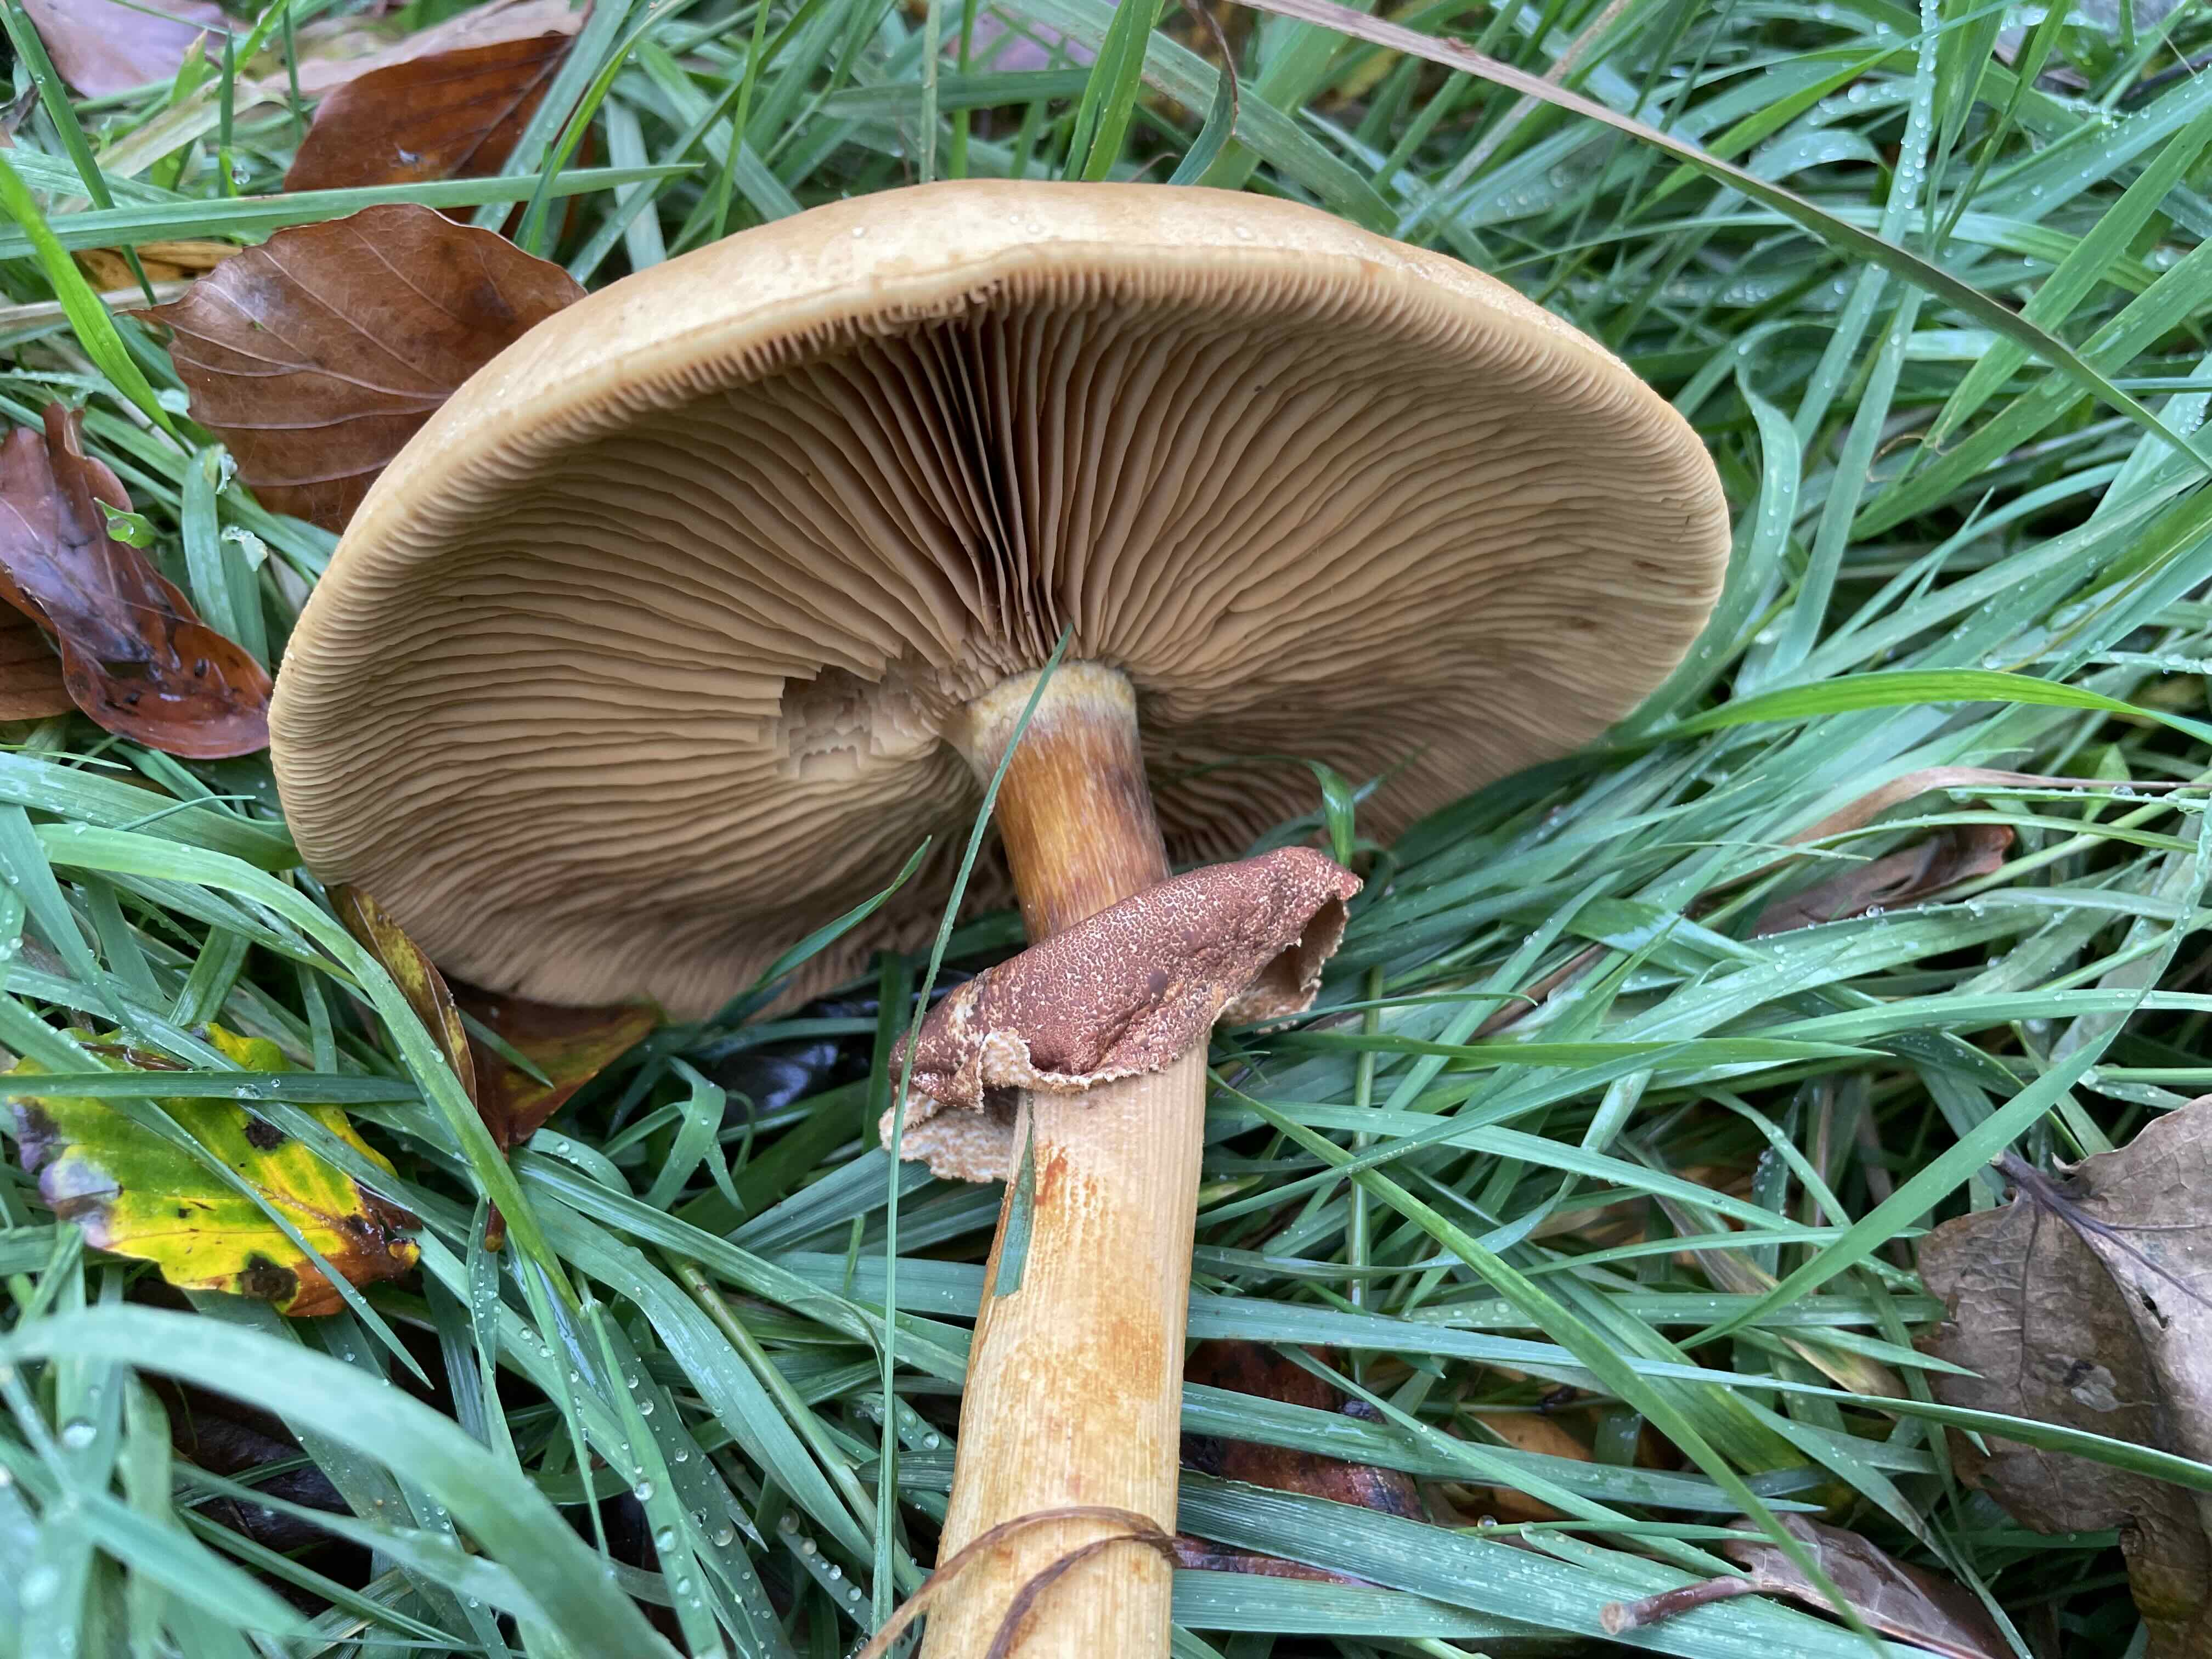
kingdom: Fungi
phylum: Basidiomycota
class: Agaricomycetes
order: Agaricales
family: Tricholomataceae
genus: Phaeolepiota
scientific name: Phaeolepiota aurea
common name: gyldenhat
